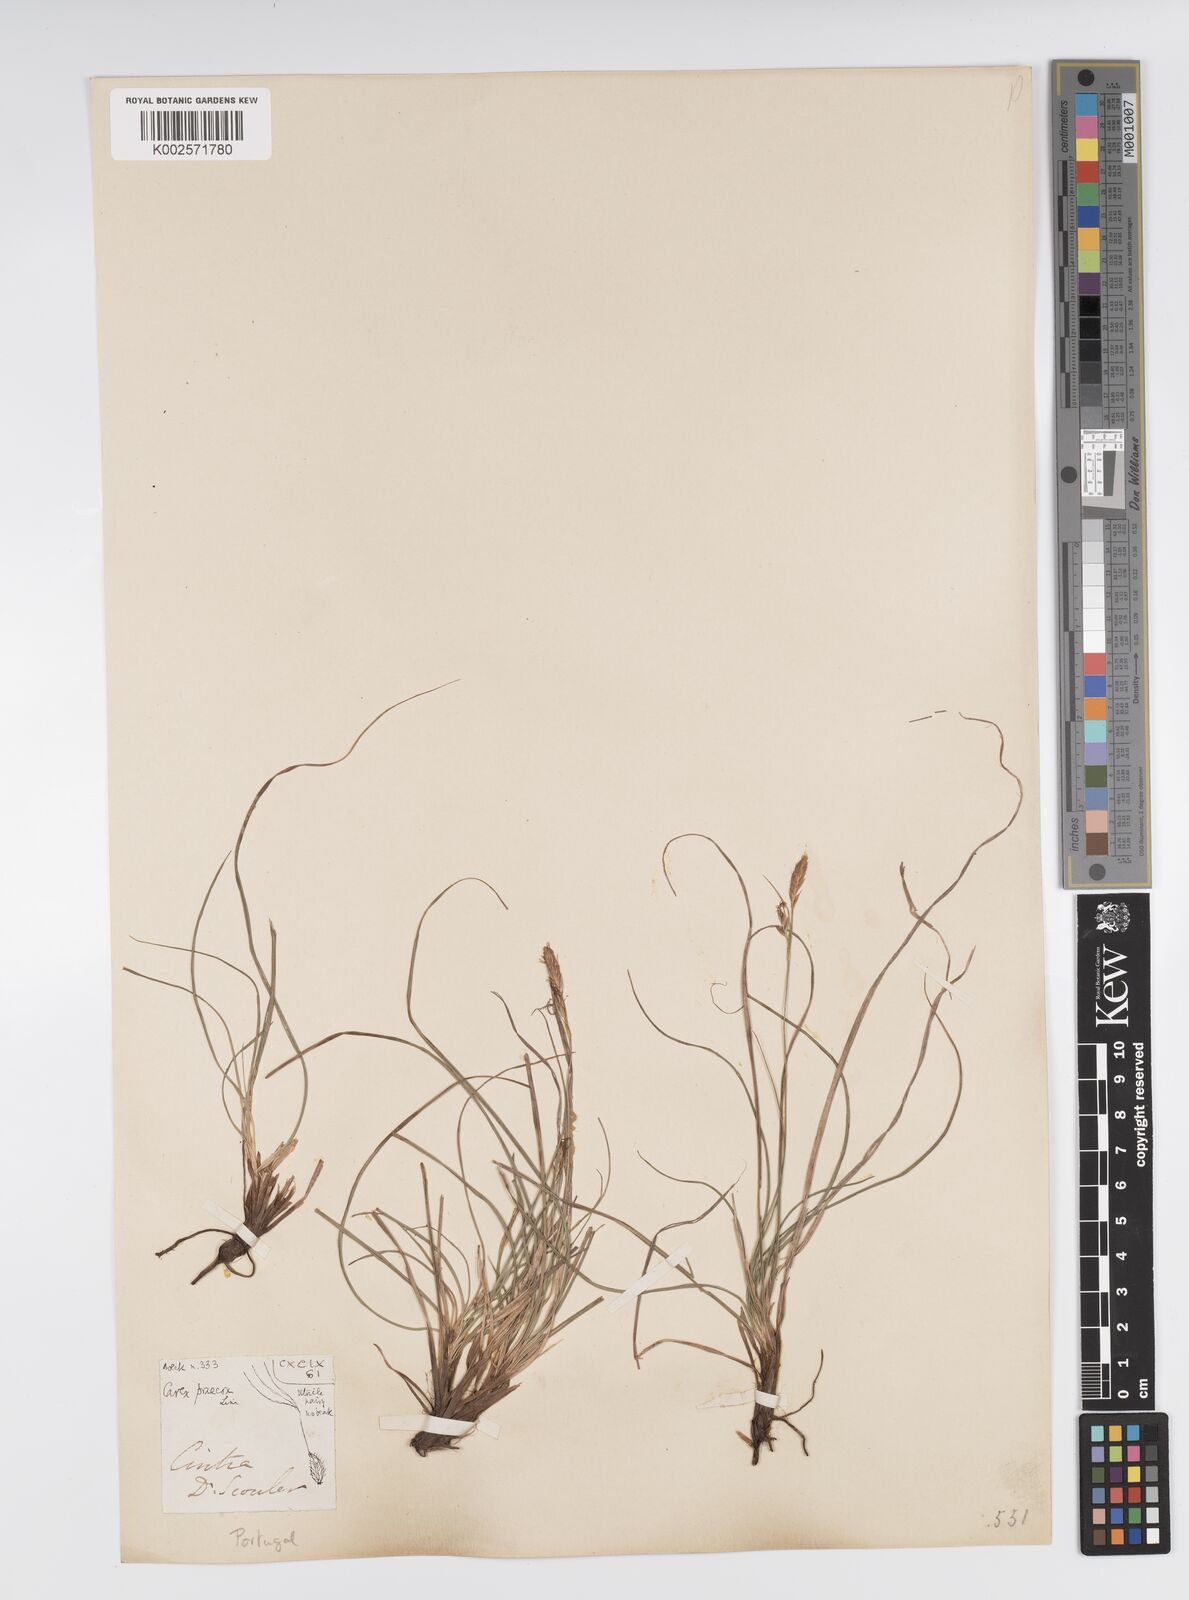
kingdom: Plantae
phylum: Tracheophyta
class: Liliopsida
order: Poales
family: Cyperaceae
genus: Carex
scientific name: Carex caryophyllea
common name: Spring sedge
